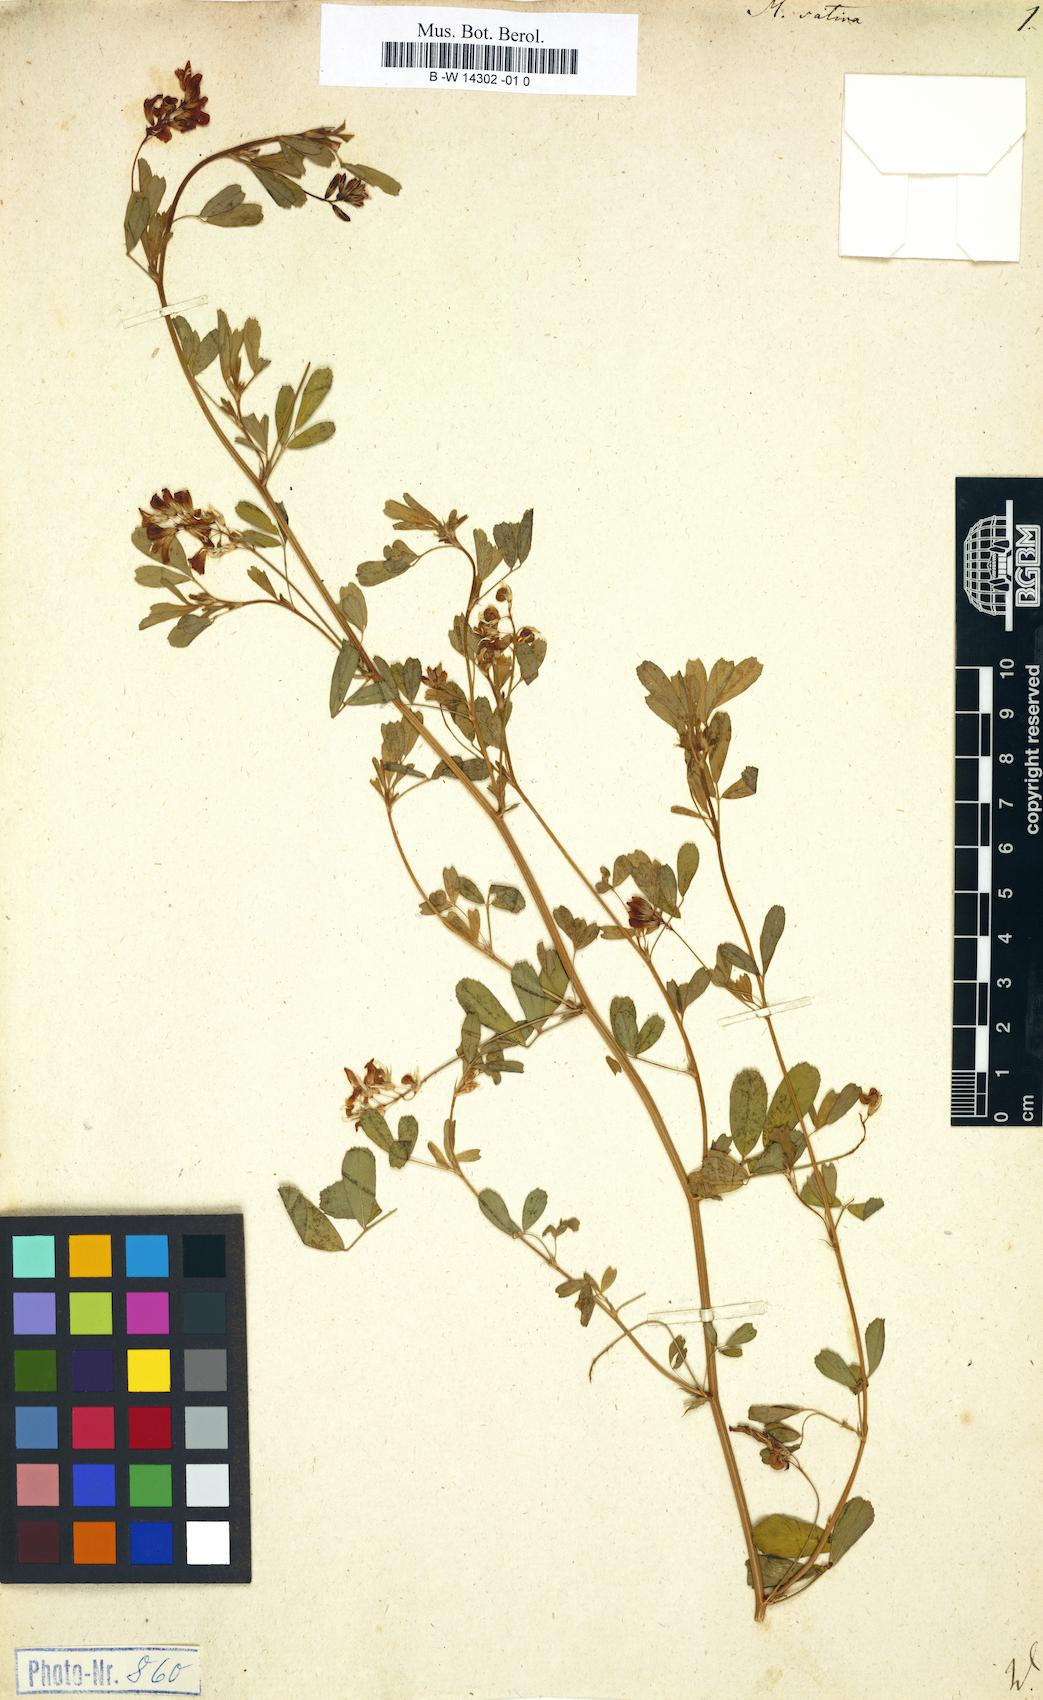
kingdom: Plantae
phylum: Tracheophyta
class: Magnoliopsida
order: Fabales
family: Fabaceae
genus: Medicago
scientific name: Medicago sativa
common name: Alfalfa
